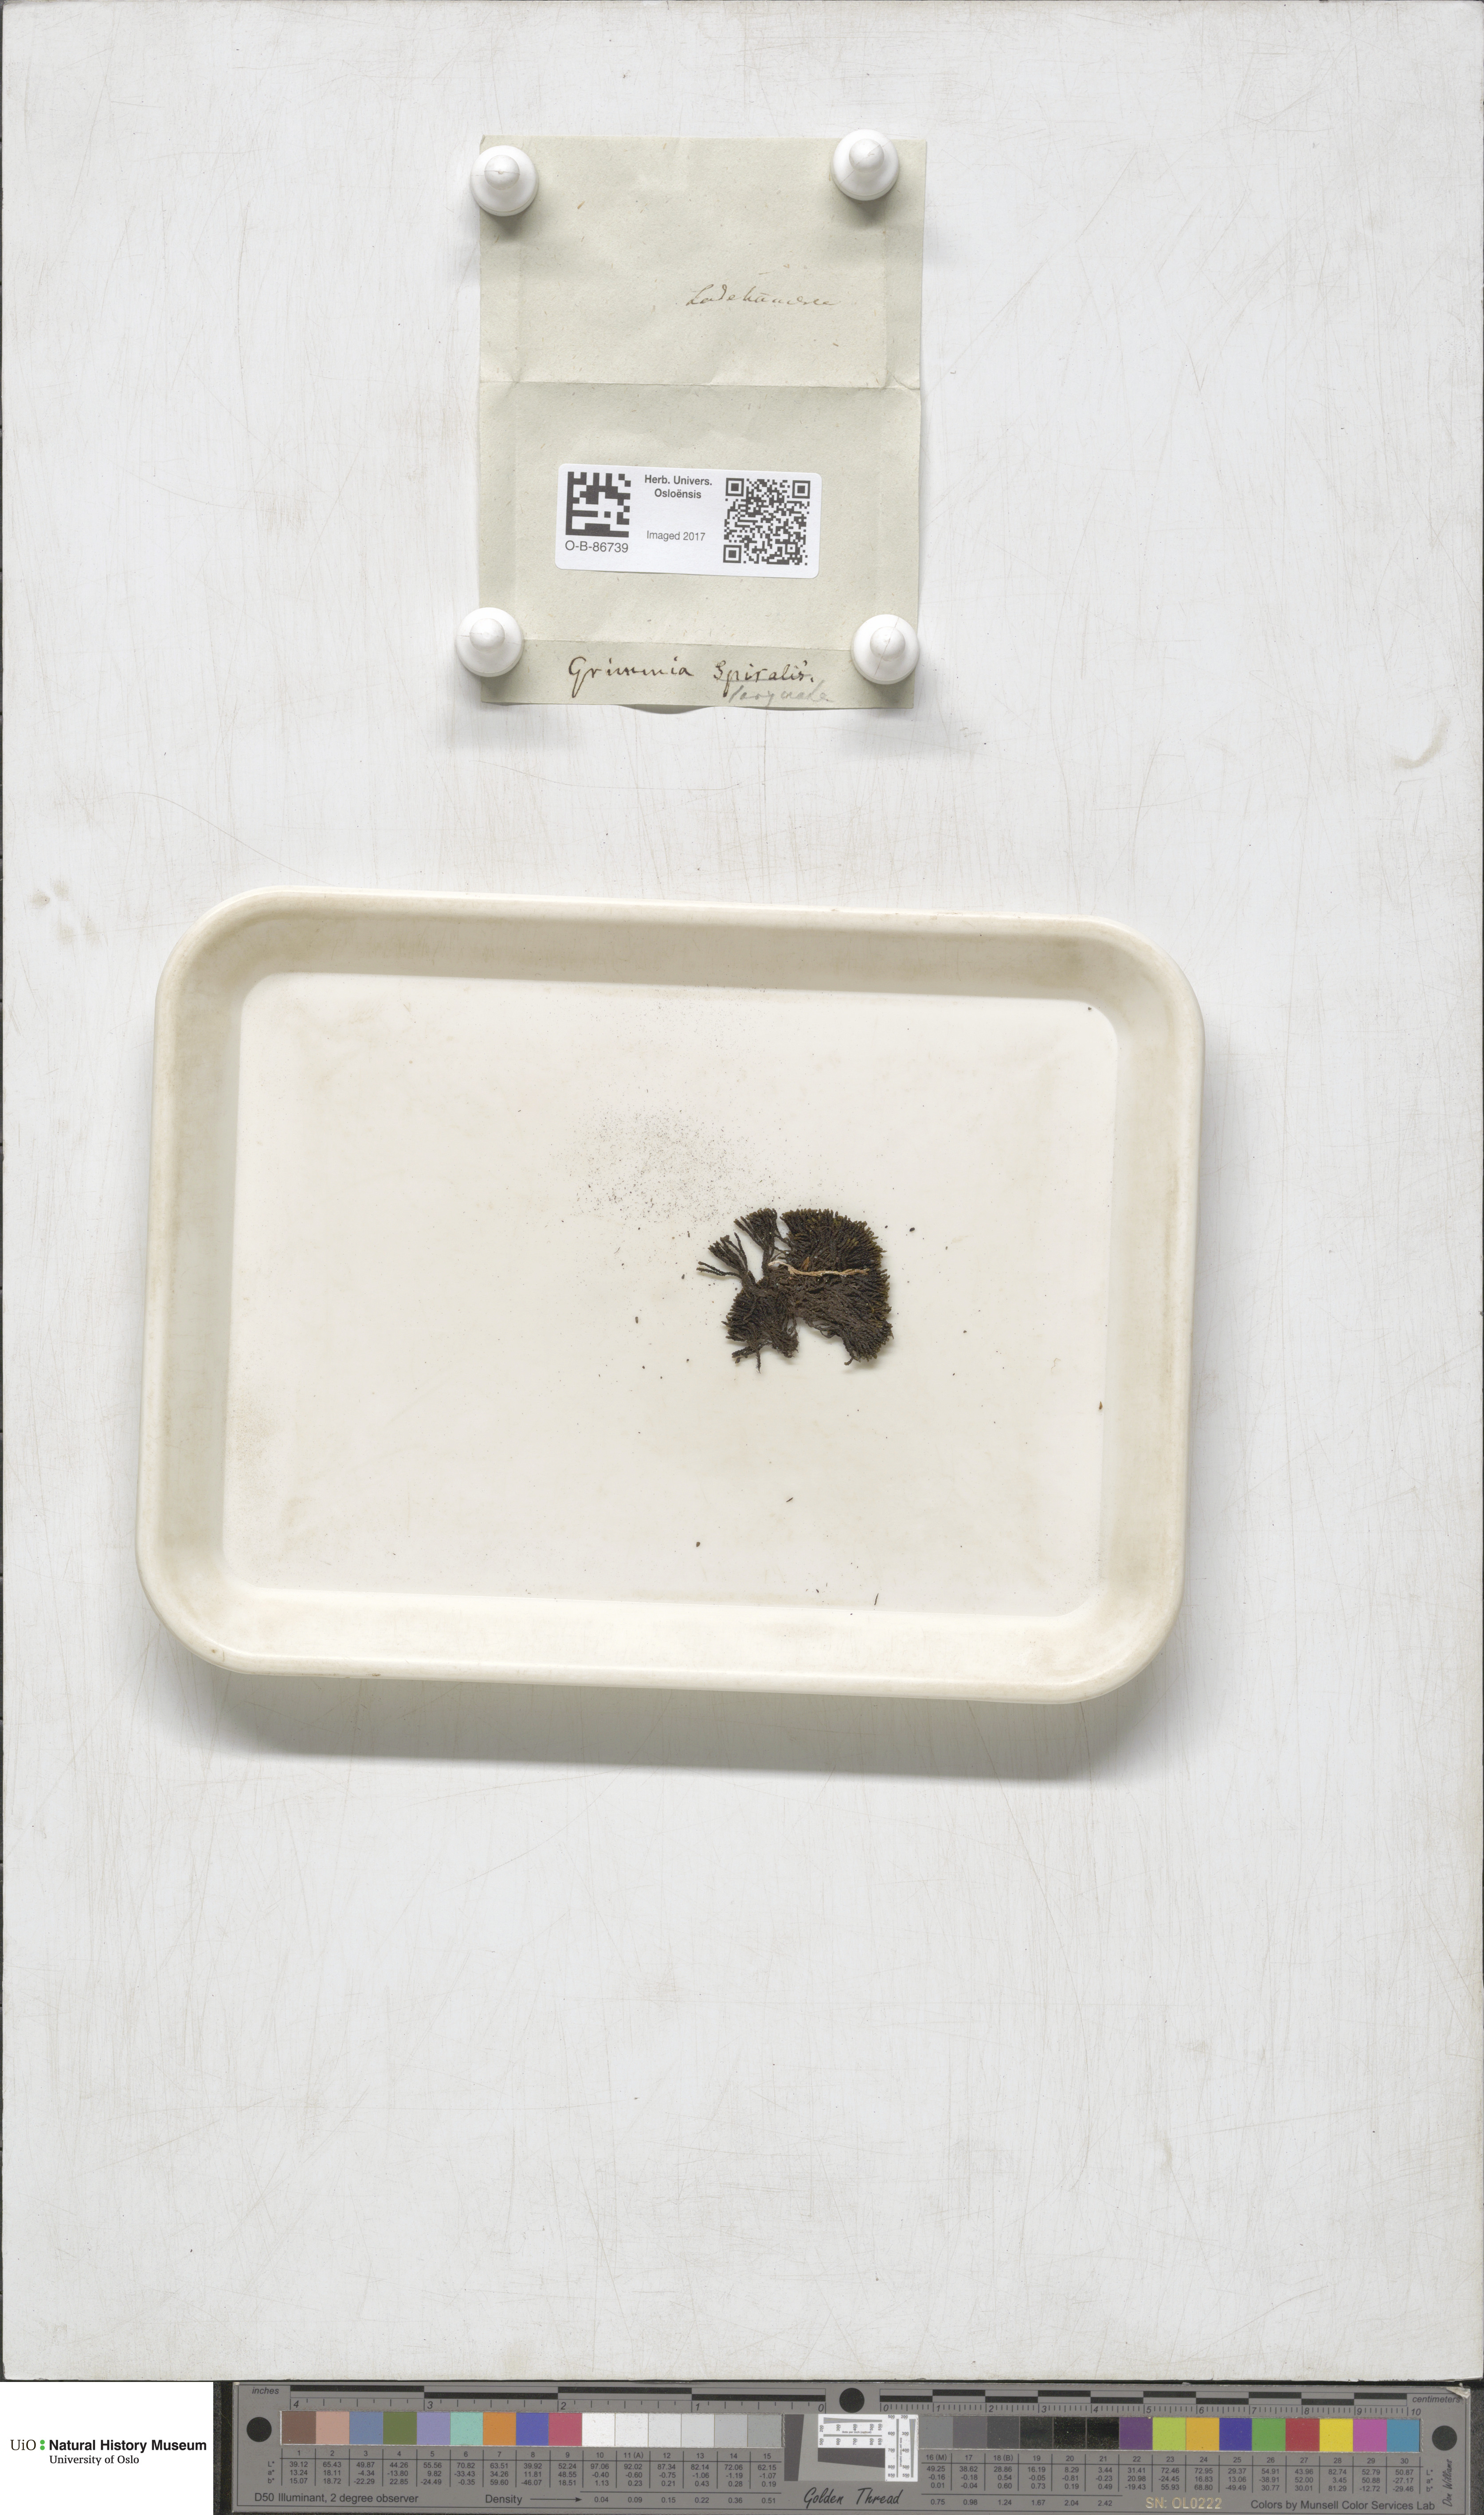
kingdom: Plantae
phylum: Bryophyta
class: Bryopsida
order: Grimmiales
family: Grimmiaceae
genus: Grimmia
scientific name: Grimmia funalis
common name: String grimmia
